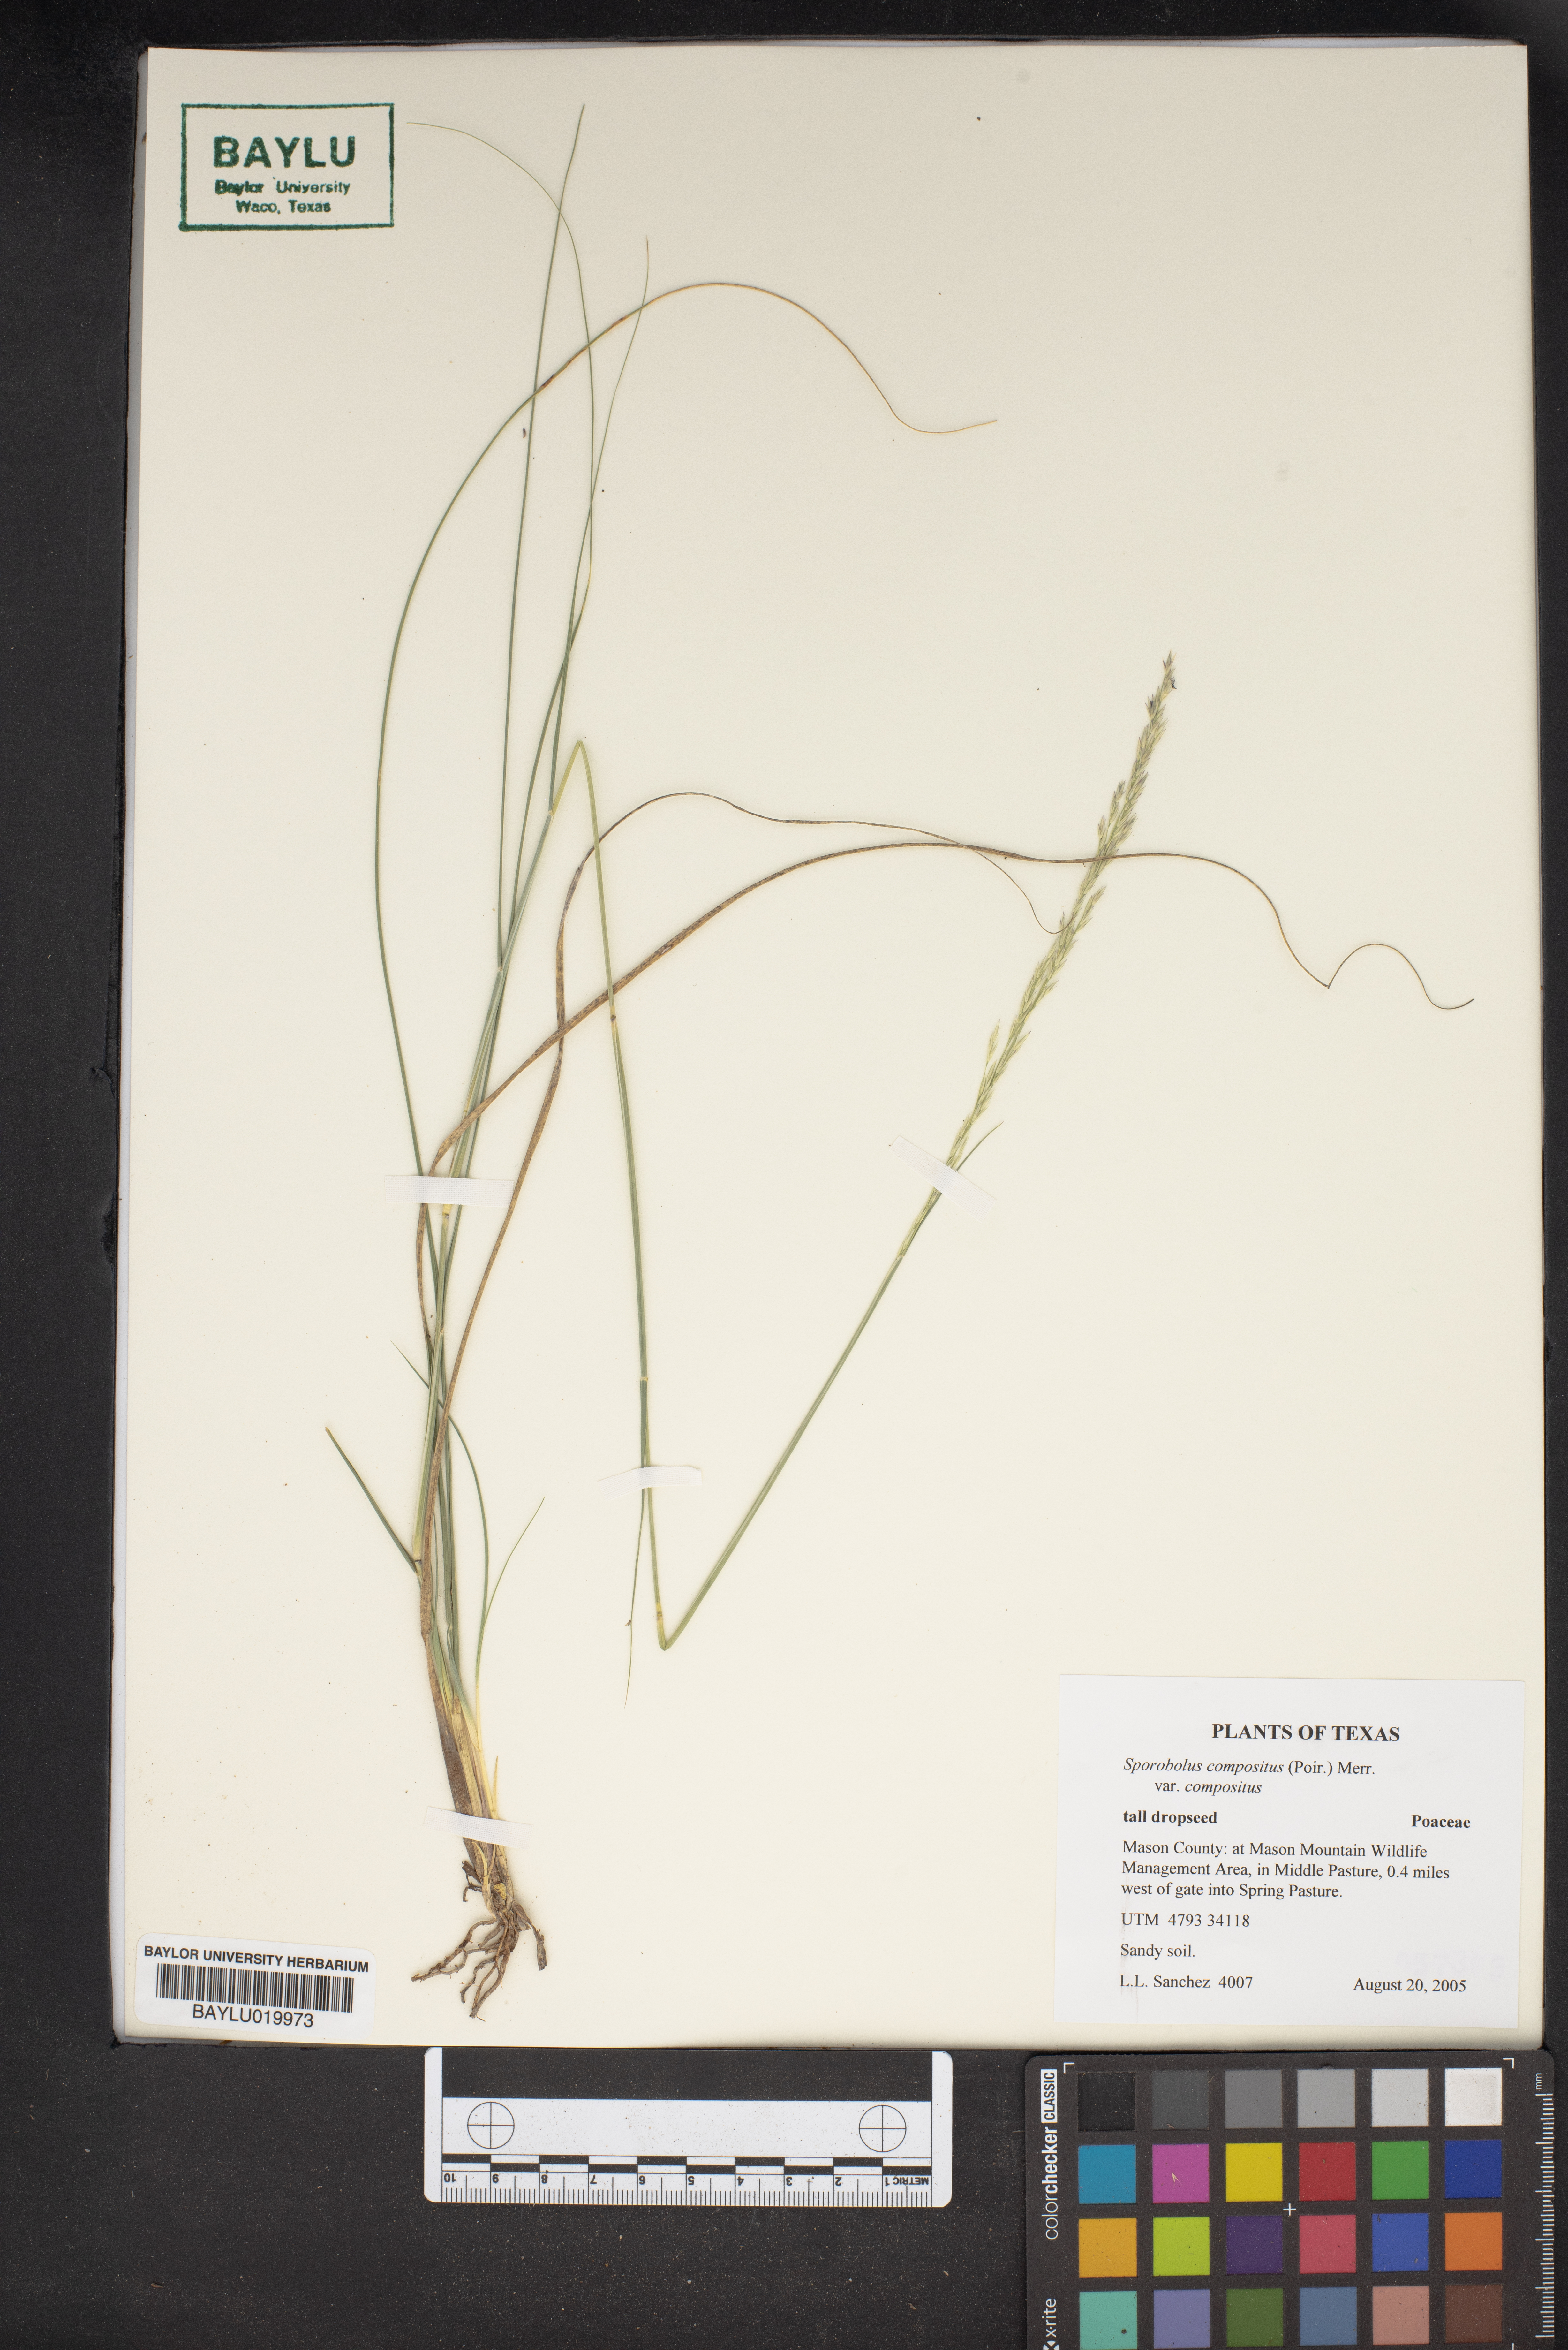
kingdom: Plantae
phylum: Tracheophyta
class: Liliopsida
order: Poales
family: Poaceae
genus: Sporobolus
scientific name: Sporobolus compositus
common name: Rough dropseed
